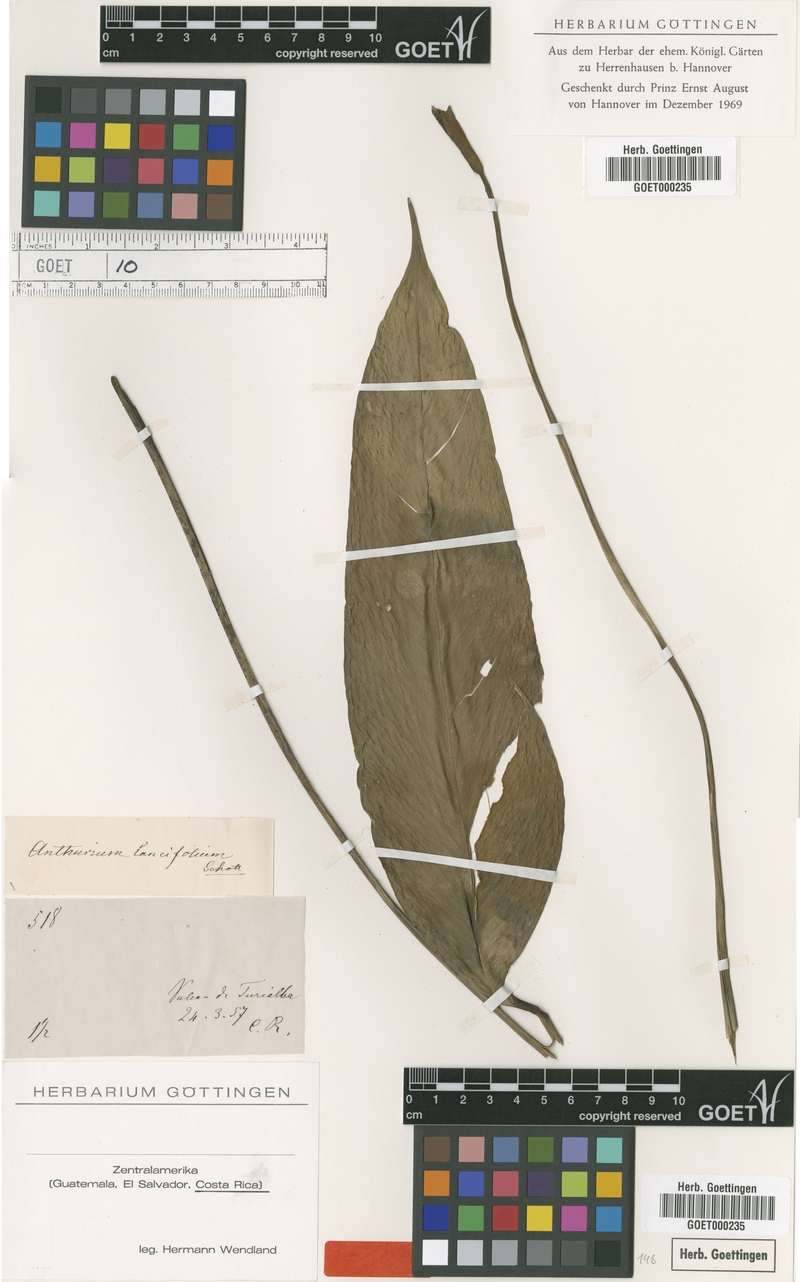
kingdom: Plantae
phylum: Tracheophyta
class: Liliopsida
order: Alismatales
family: Araceae
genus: Anthurium
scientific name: Anthurium lancifolium
